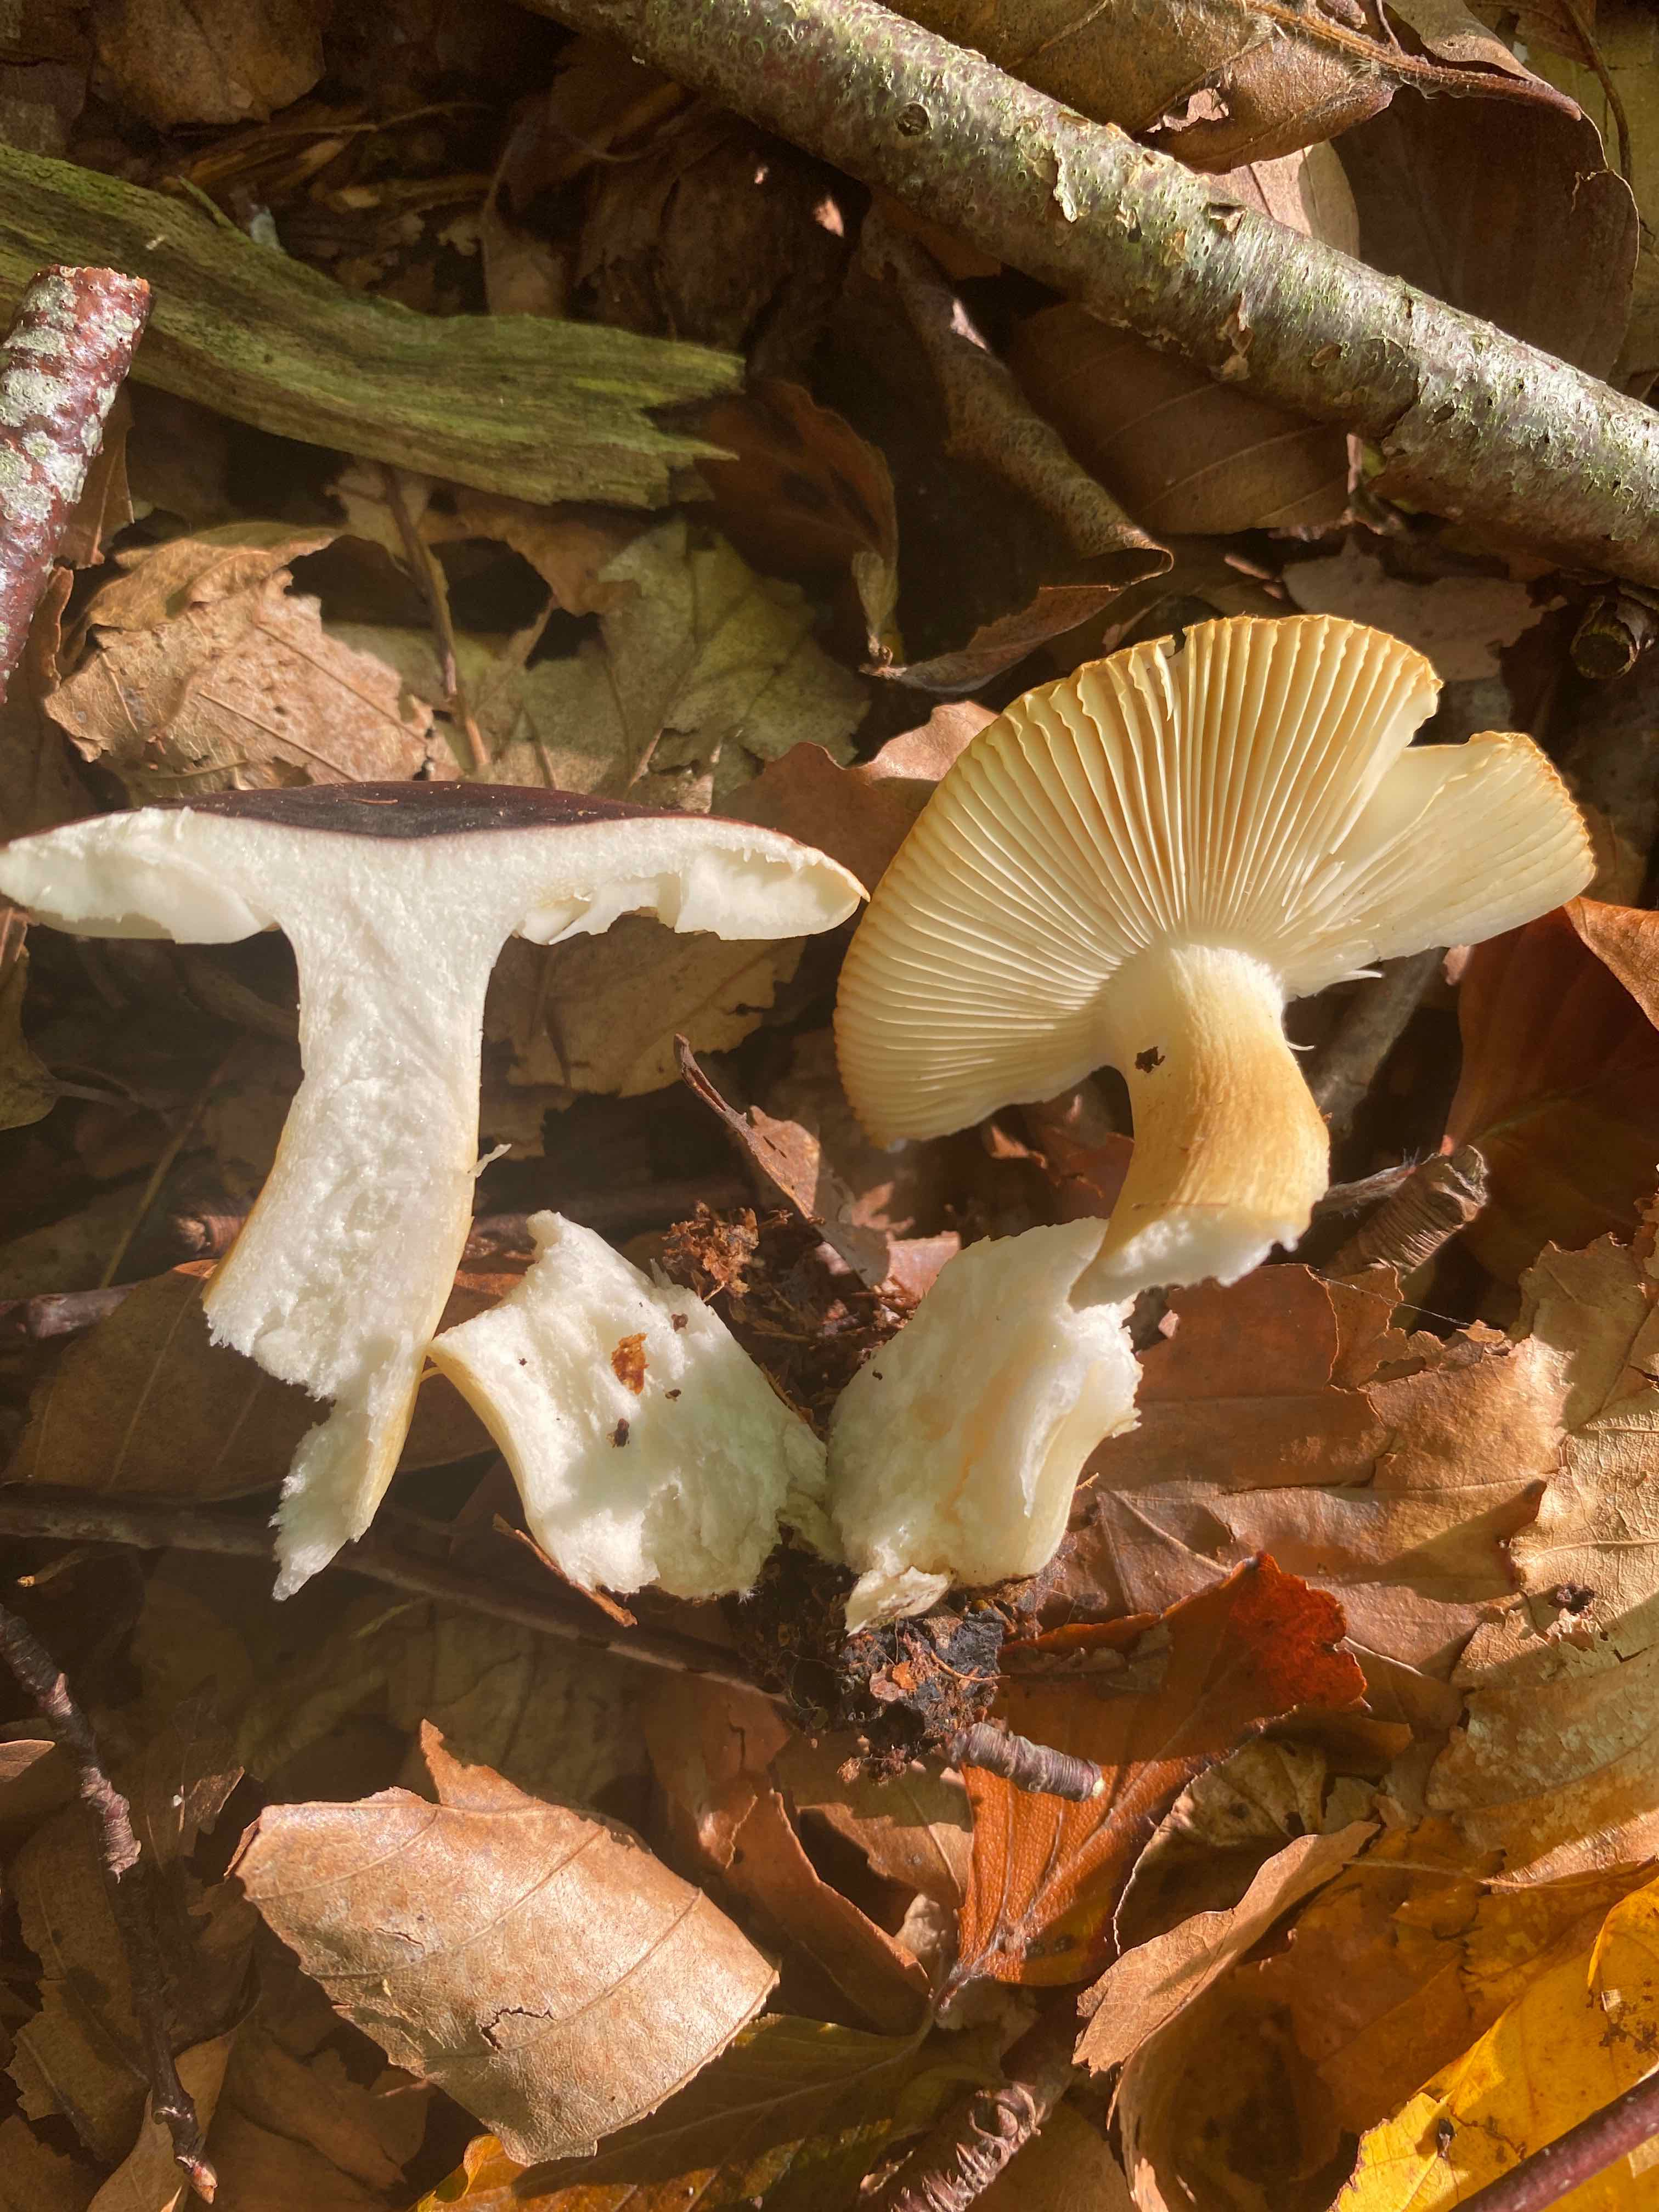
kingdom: Fungi
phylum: Basidiomycota
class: Agaricomycetes
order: Russulales
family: Russulaceae
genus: Russula
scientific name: Russula puellaris
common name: gulstokket skørhat
